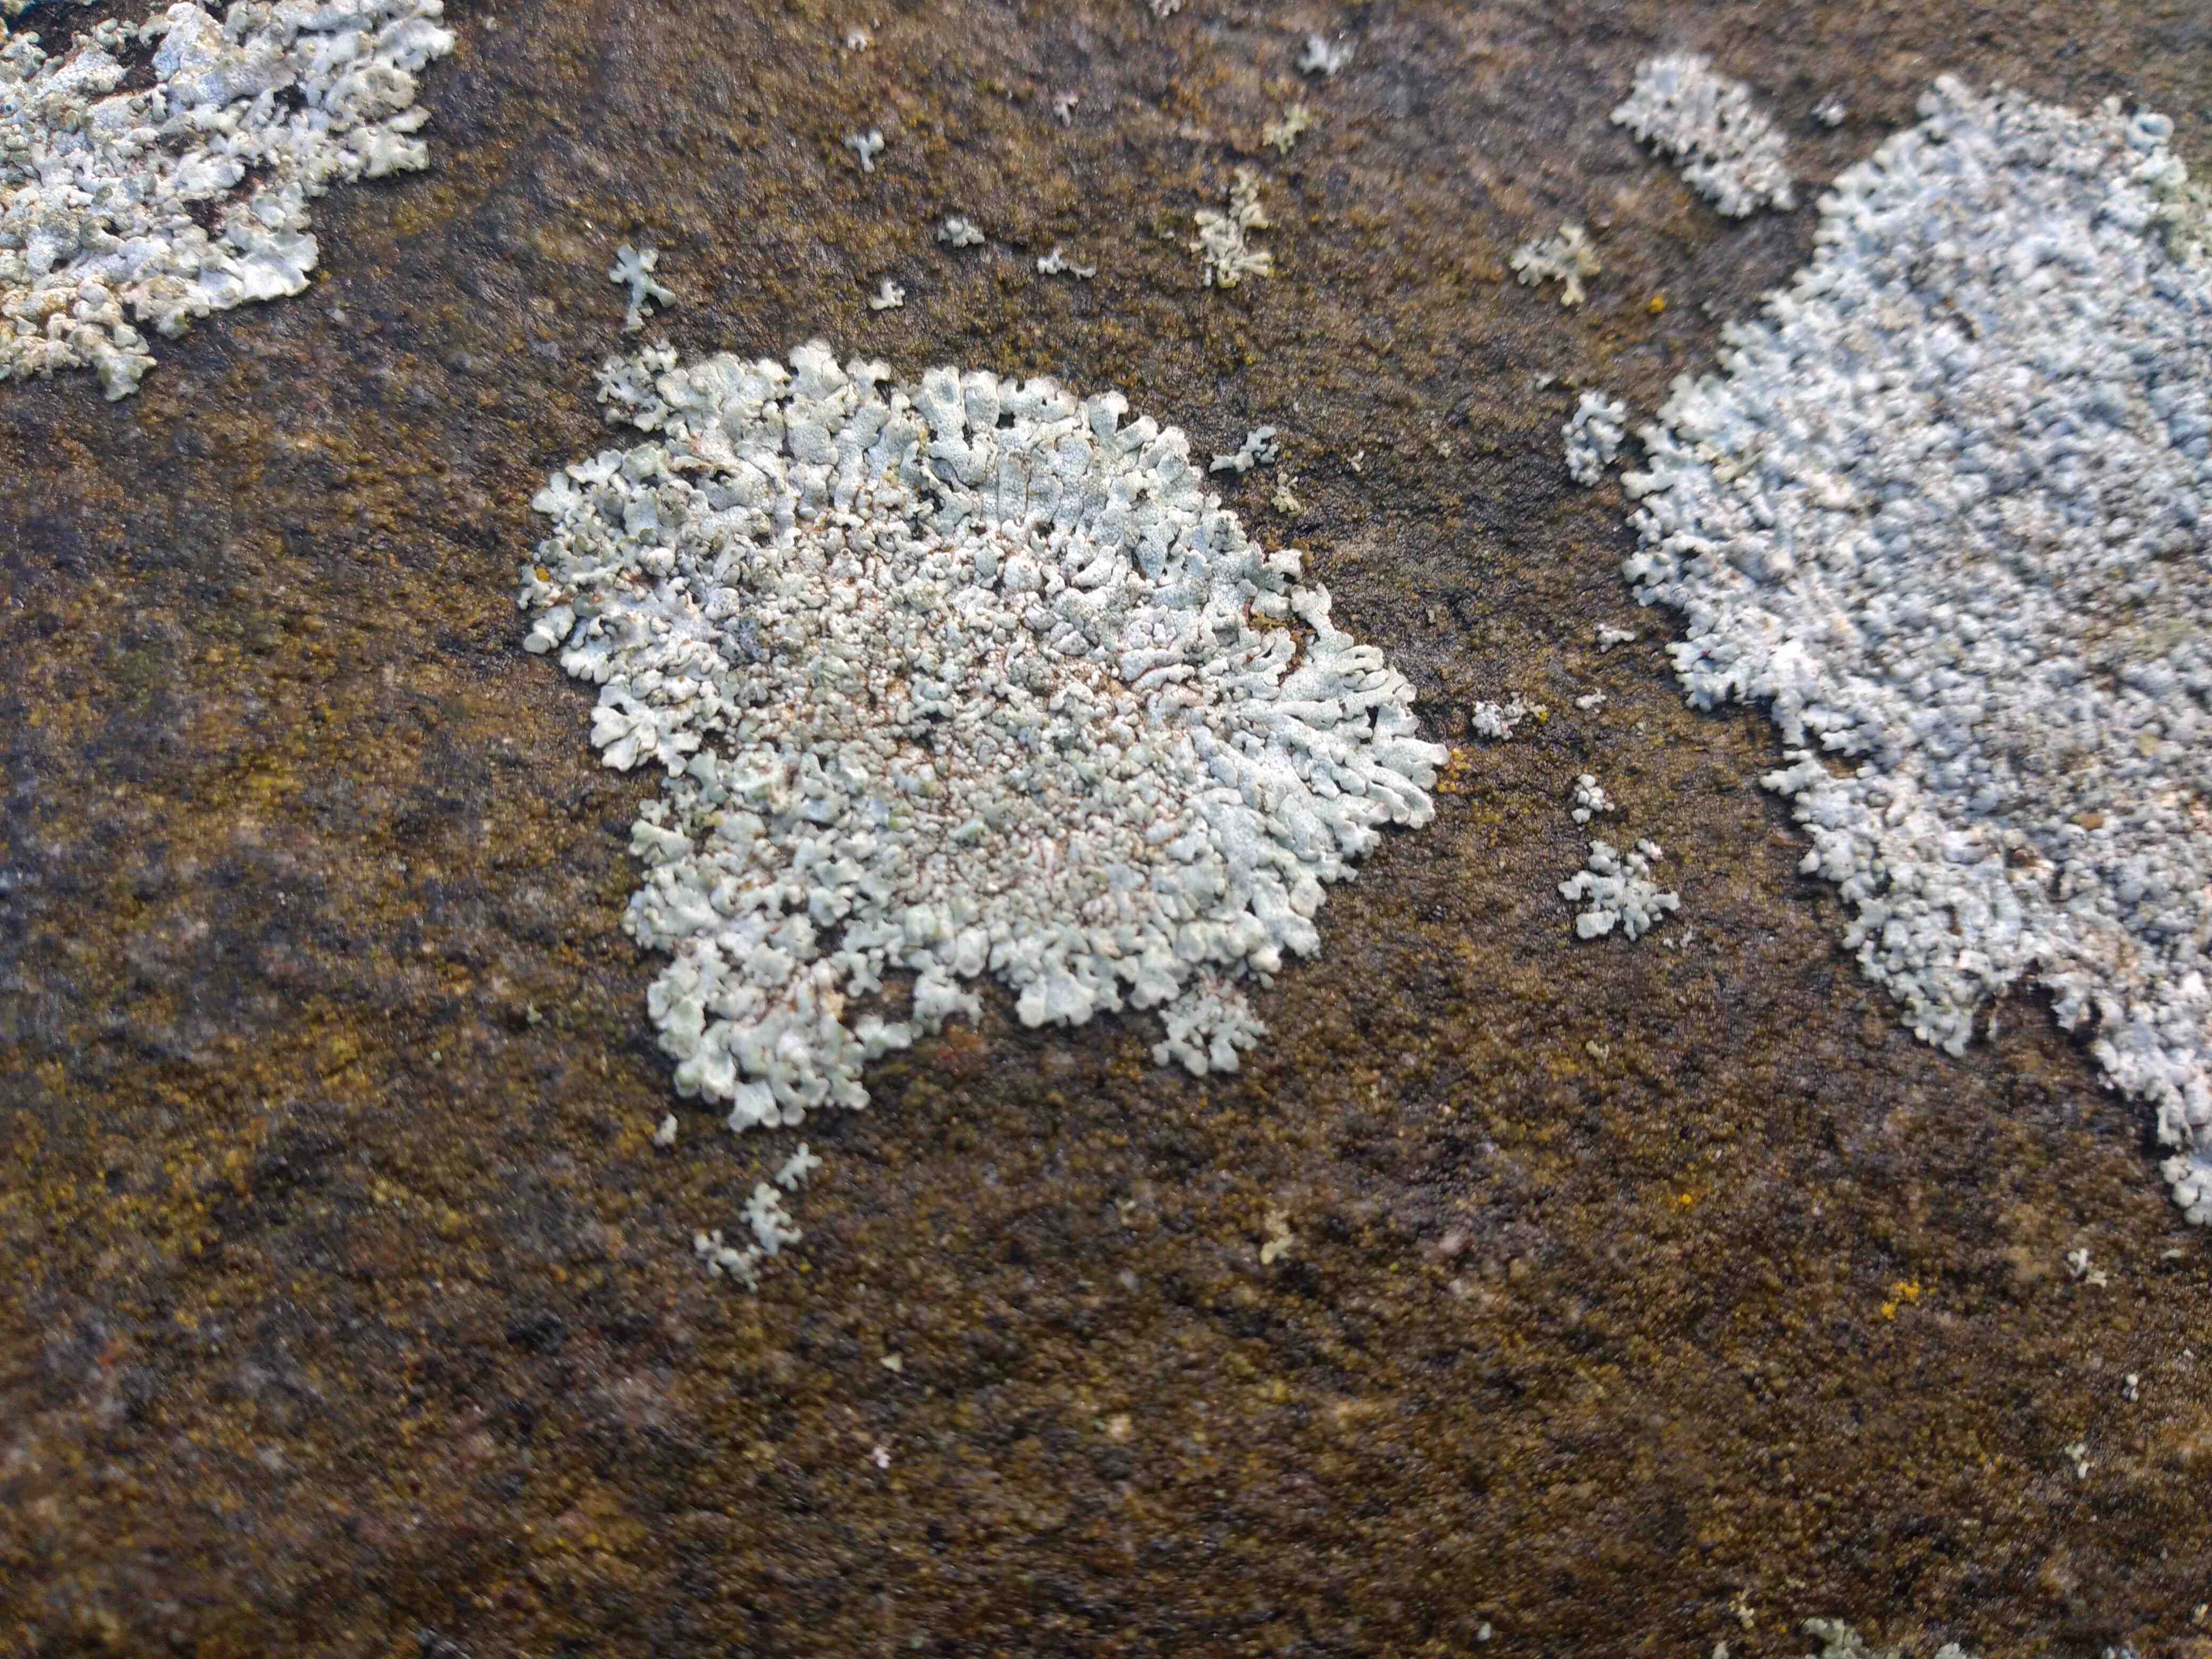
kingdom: Fungi
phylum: Ascomycota
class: Lecanoromycetes
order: Caliciales
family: Physciaceae
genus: Physcia
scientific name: Physcia caesia
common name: blågrå rosetlav
